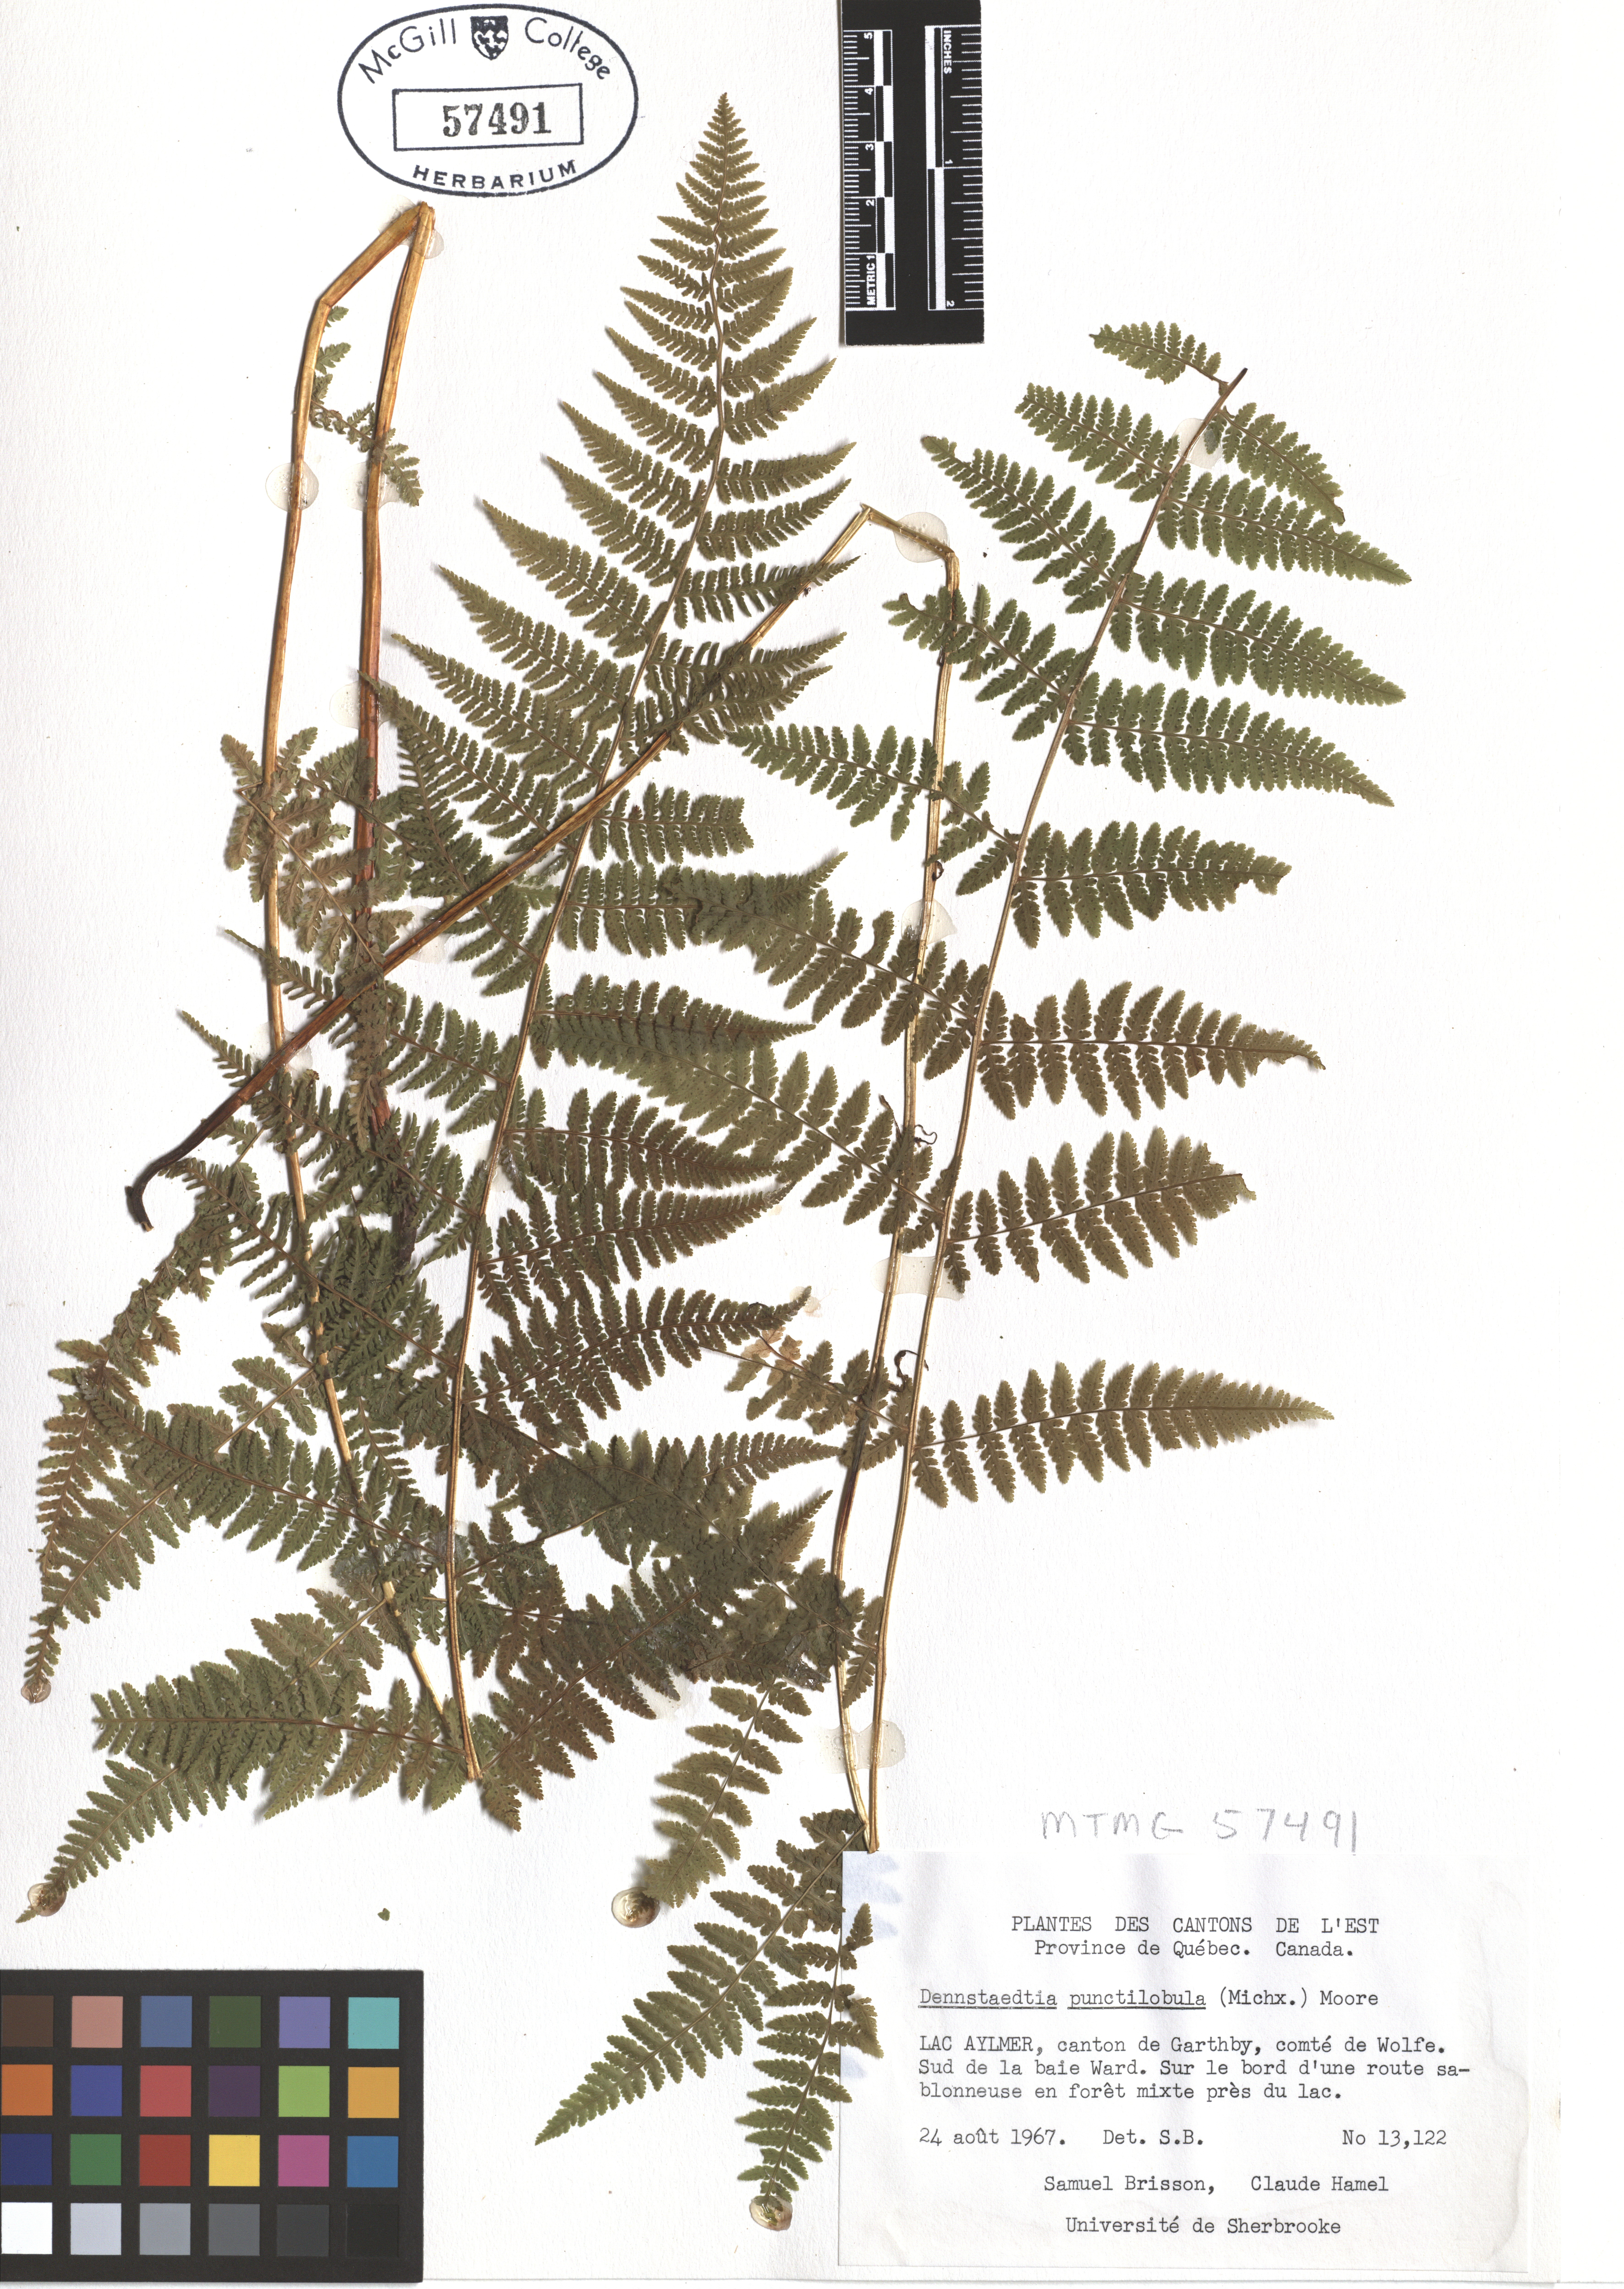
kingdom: Plantae
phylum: Tracheophyta
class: Polypodiopsida
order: Polypodiales
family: Dennstaedtiaceae
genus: Sitobolium
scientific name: Sitobolium punctilobum
